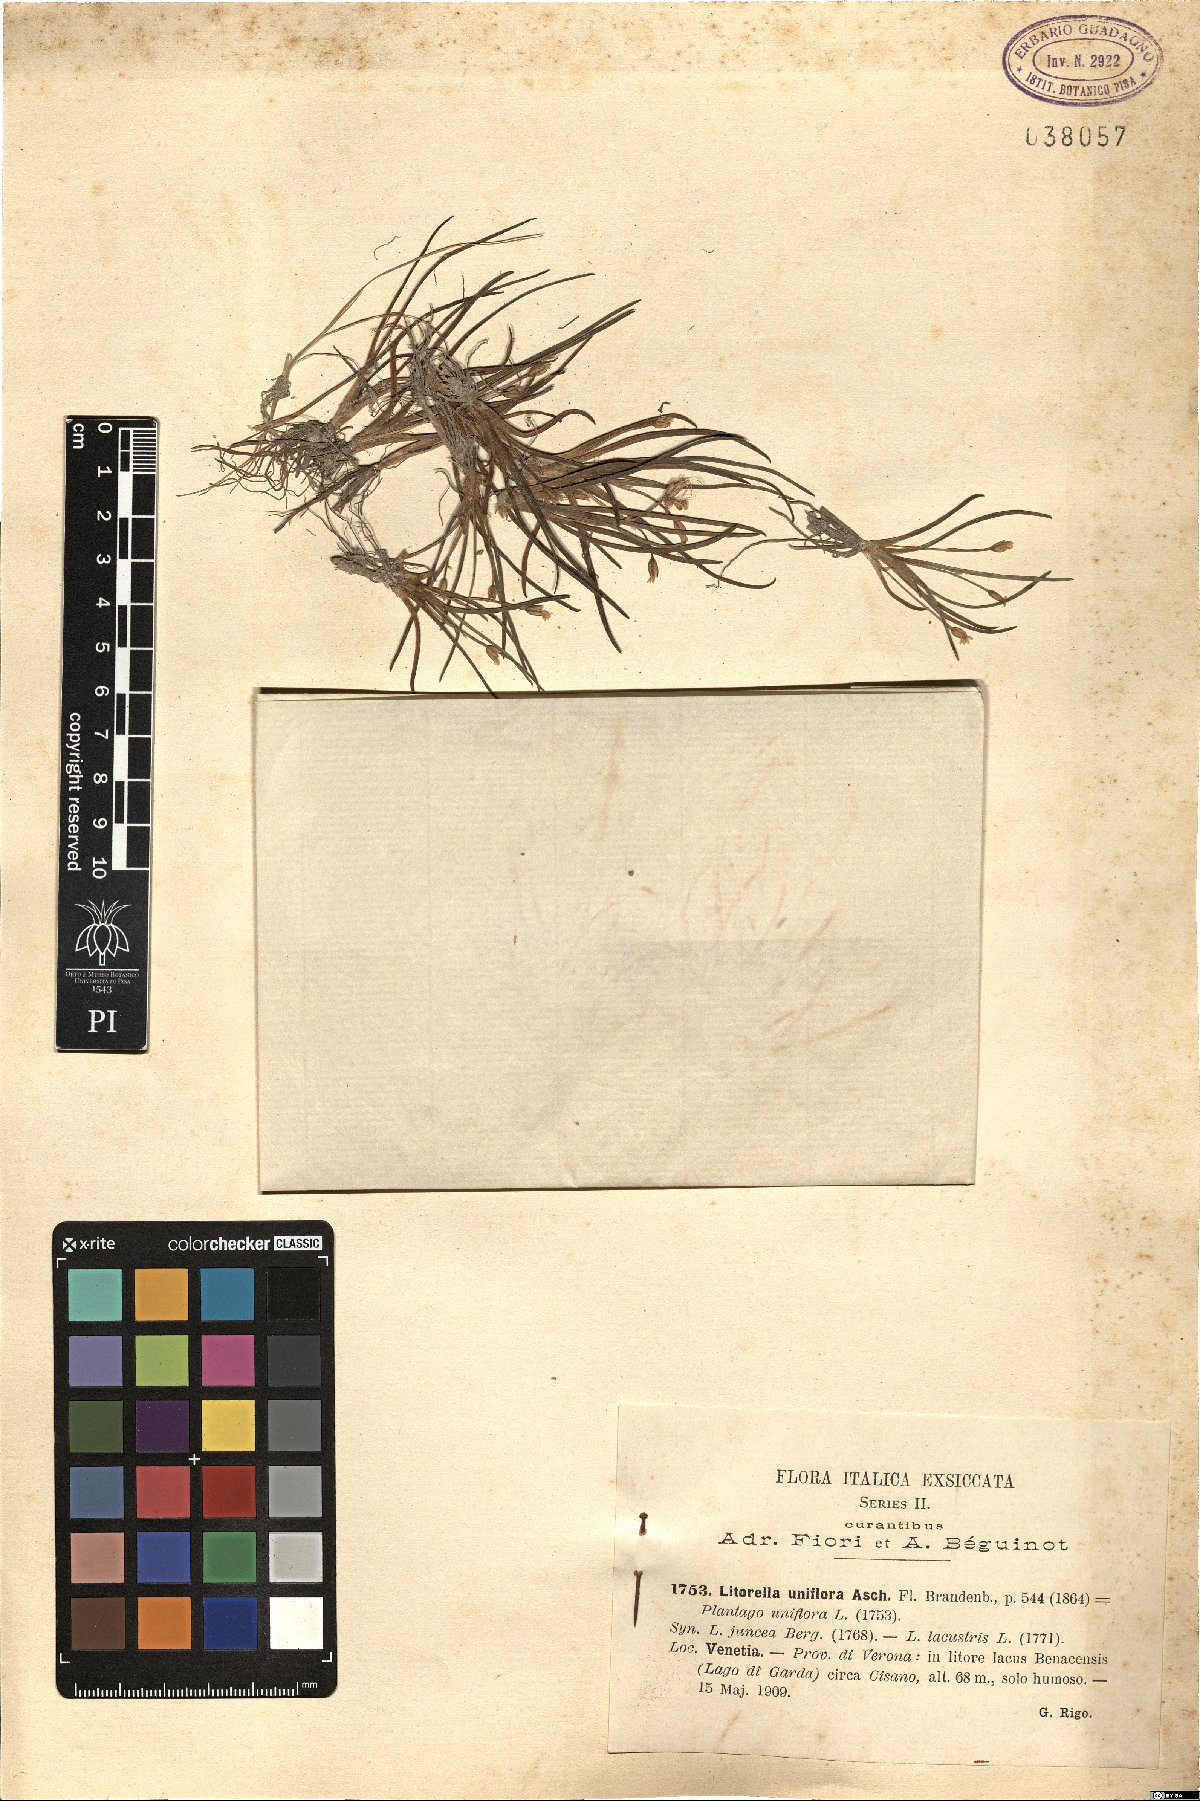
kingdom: Plantae
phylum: Tracheophyta
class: Magnoliopsida
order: Lamiales
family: Plantaginaceae
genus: Littorella
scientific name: Littorella uniflora
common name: Shoreweed
